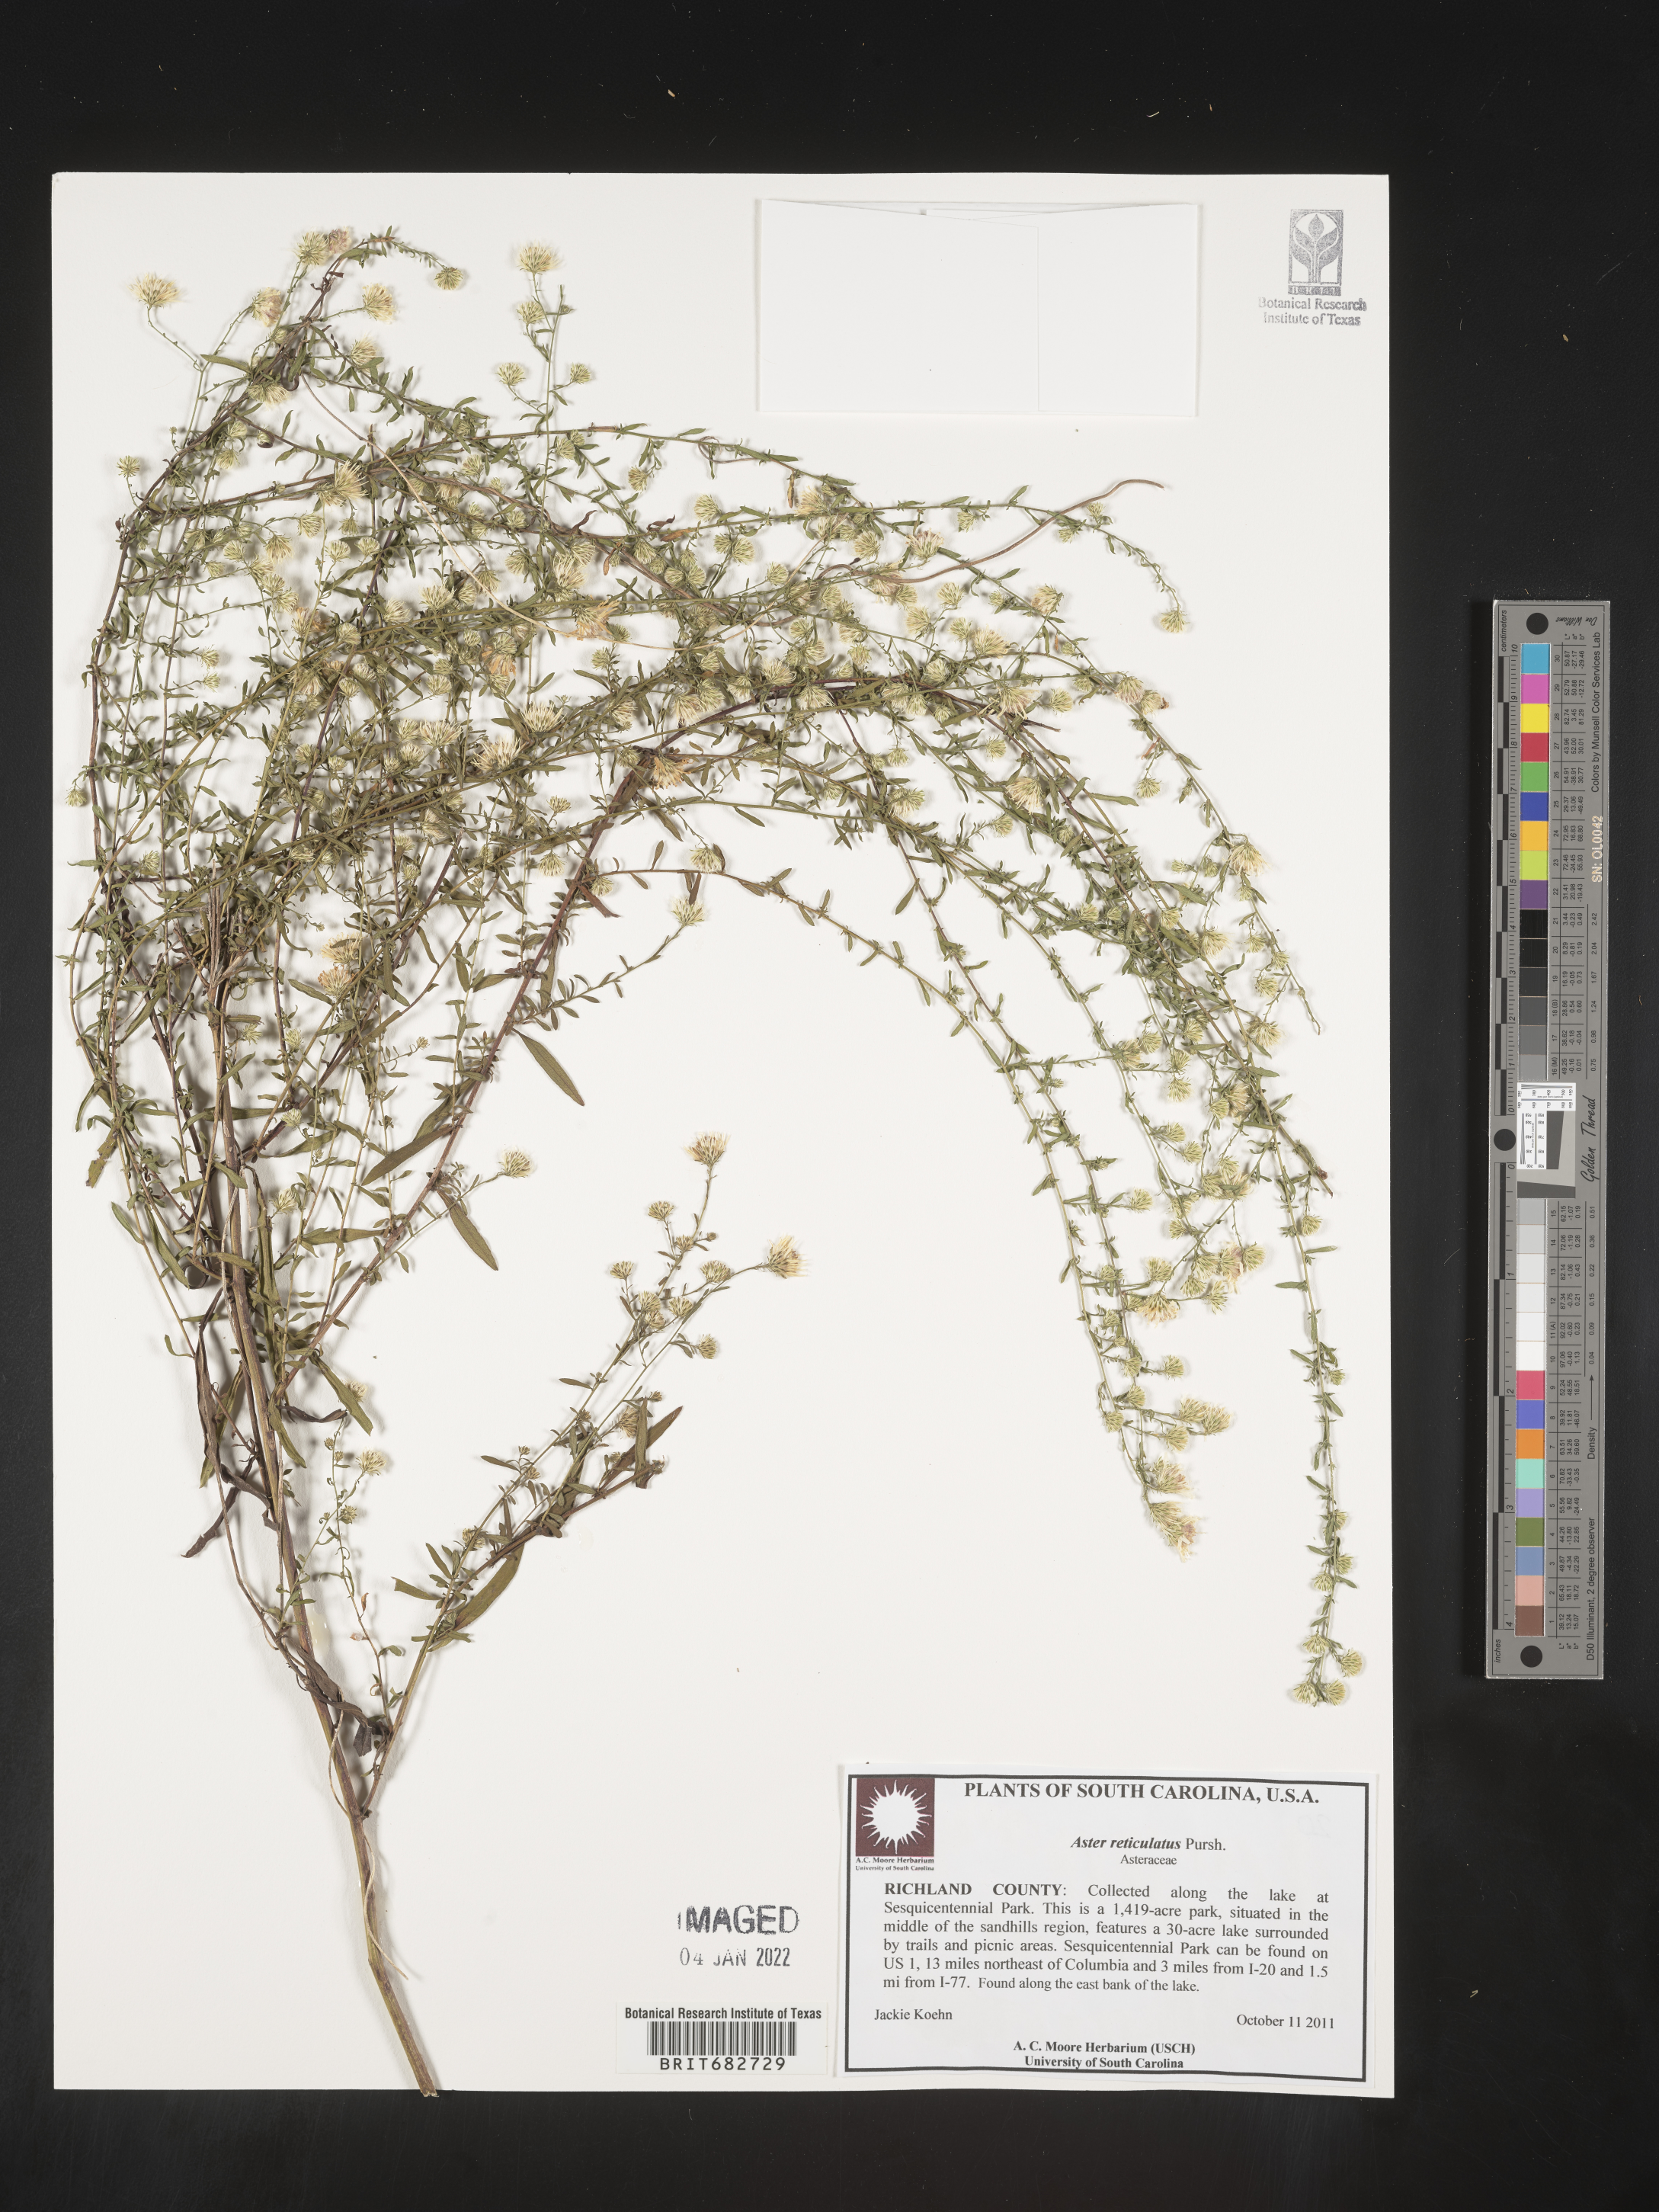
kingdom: Plantae
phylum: Tracheophyta
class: Magnoliopsida
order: Asterales
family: Asteraceae
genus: Aster
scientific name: Aster
